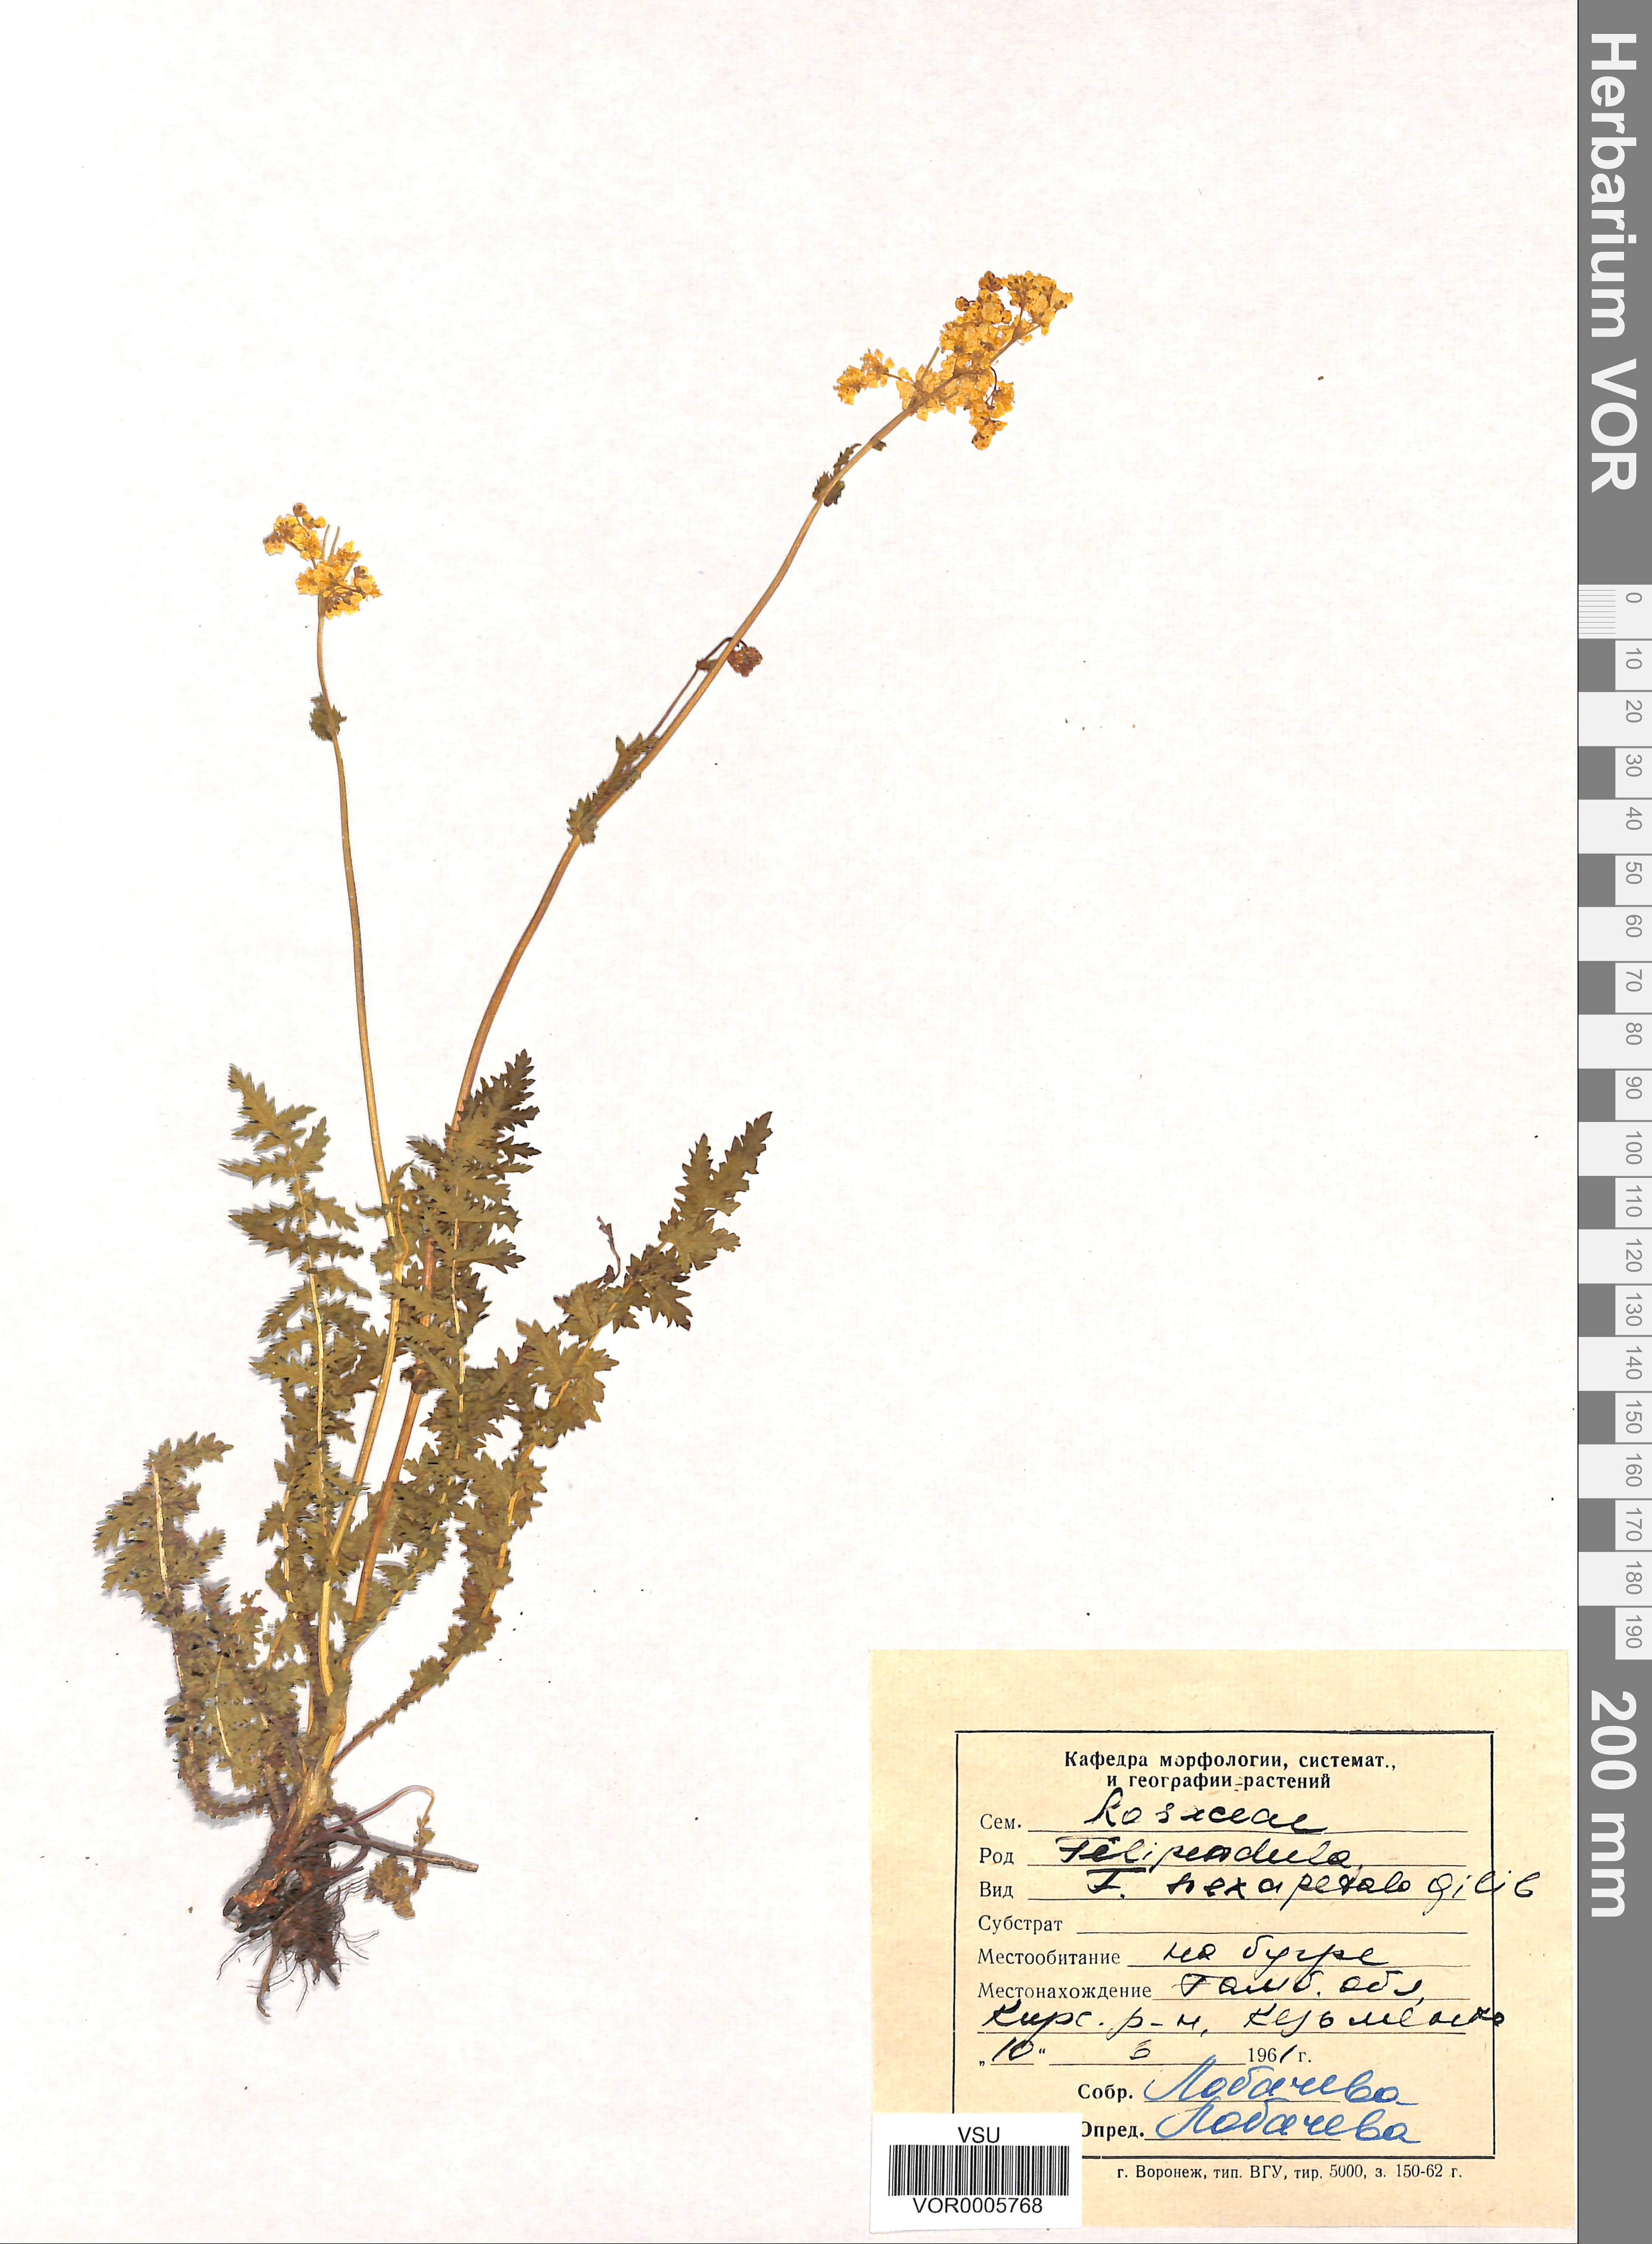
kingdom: Plantae
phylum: Tracheophyta
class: Magnoliopsida
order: Rosales
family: Rosaceae
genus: Filipendula
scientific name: Filipendula vulgaris
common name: Dropwort
